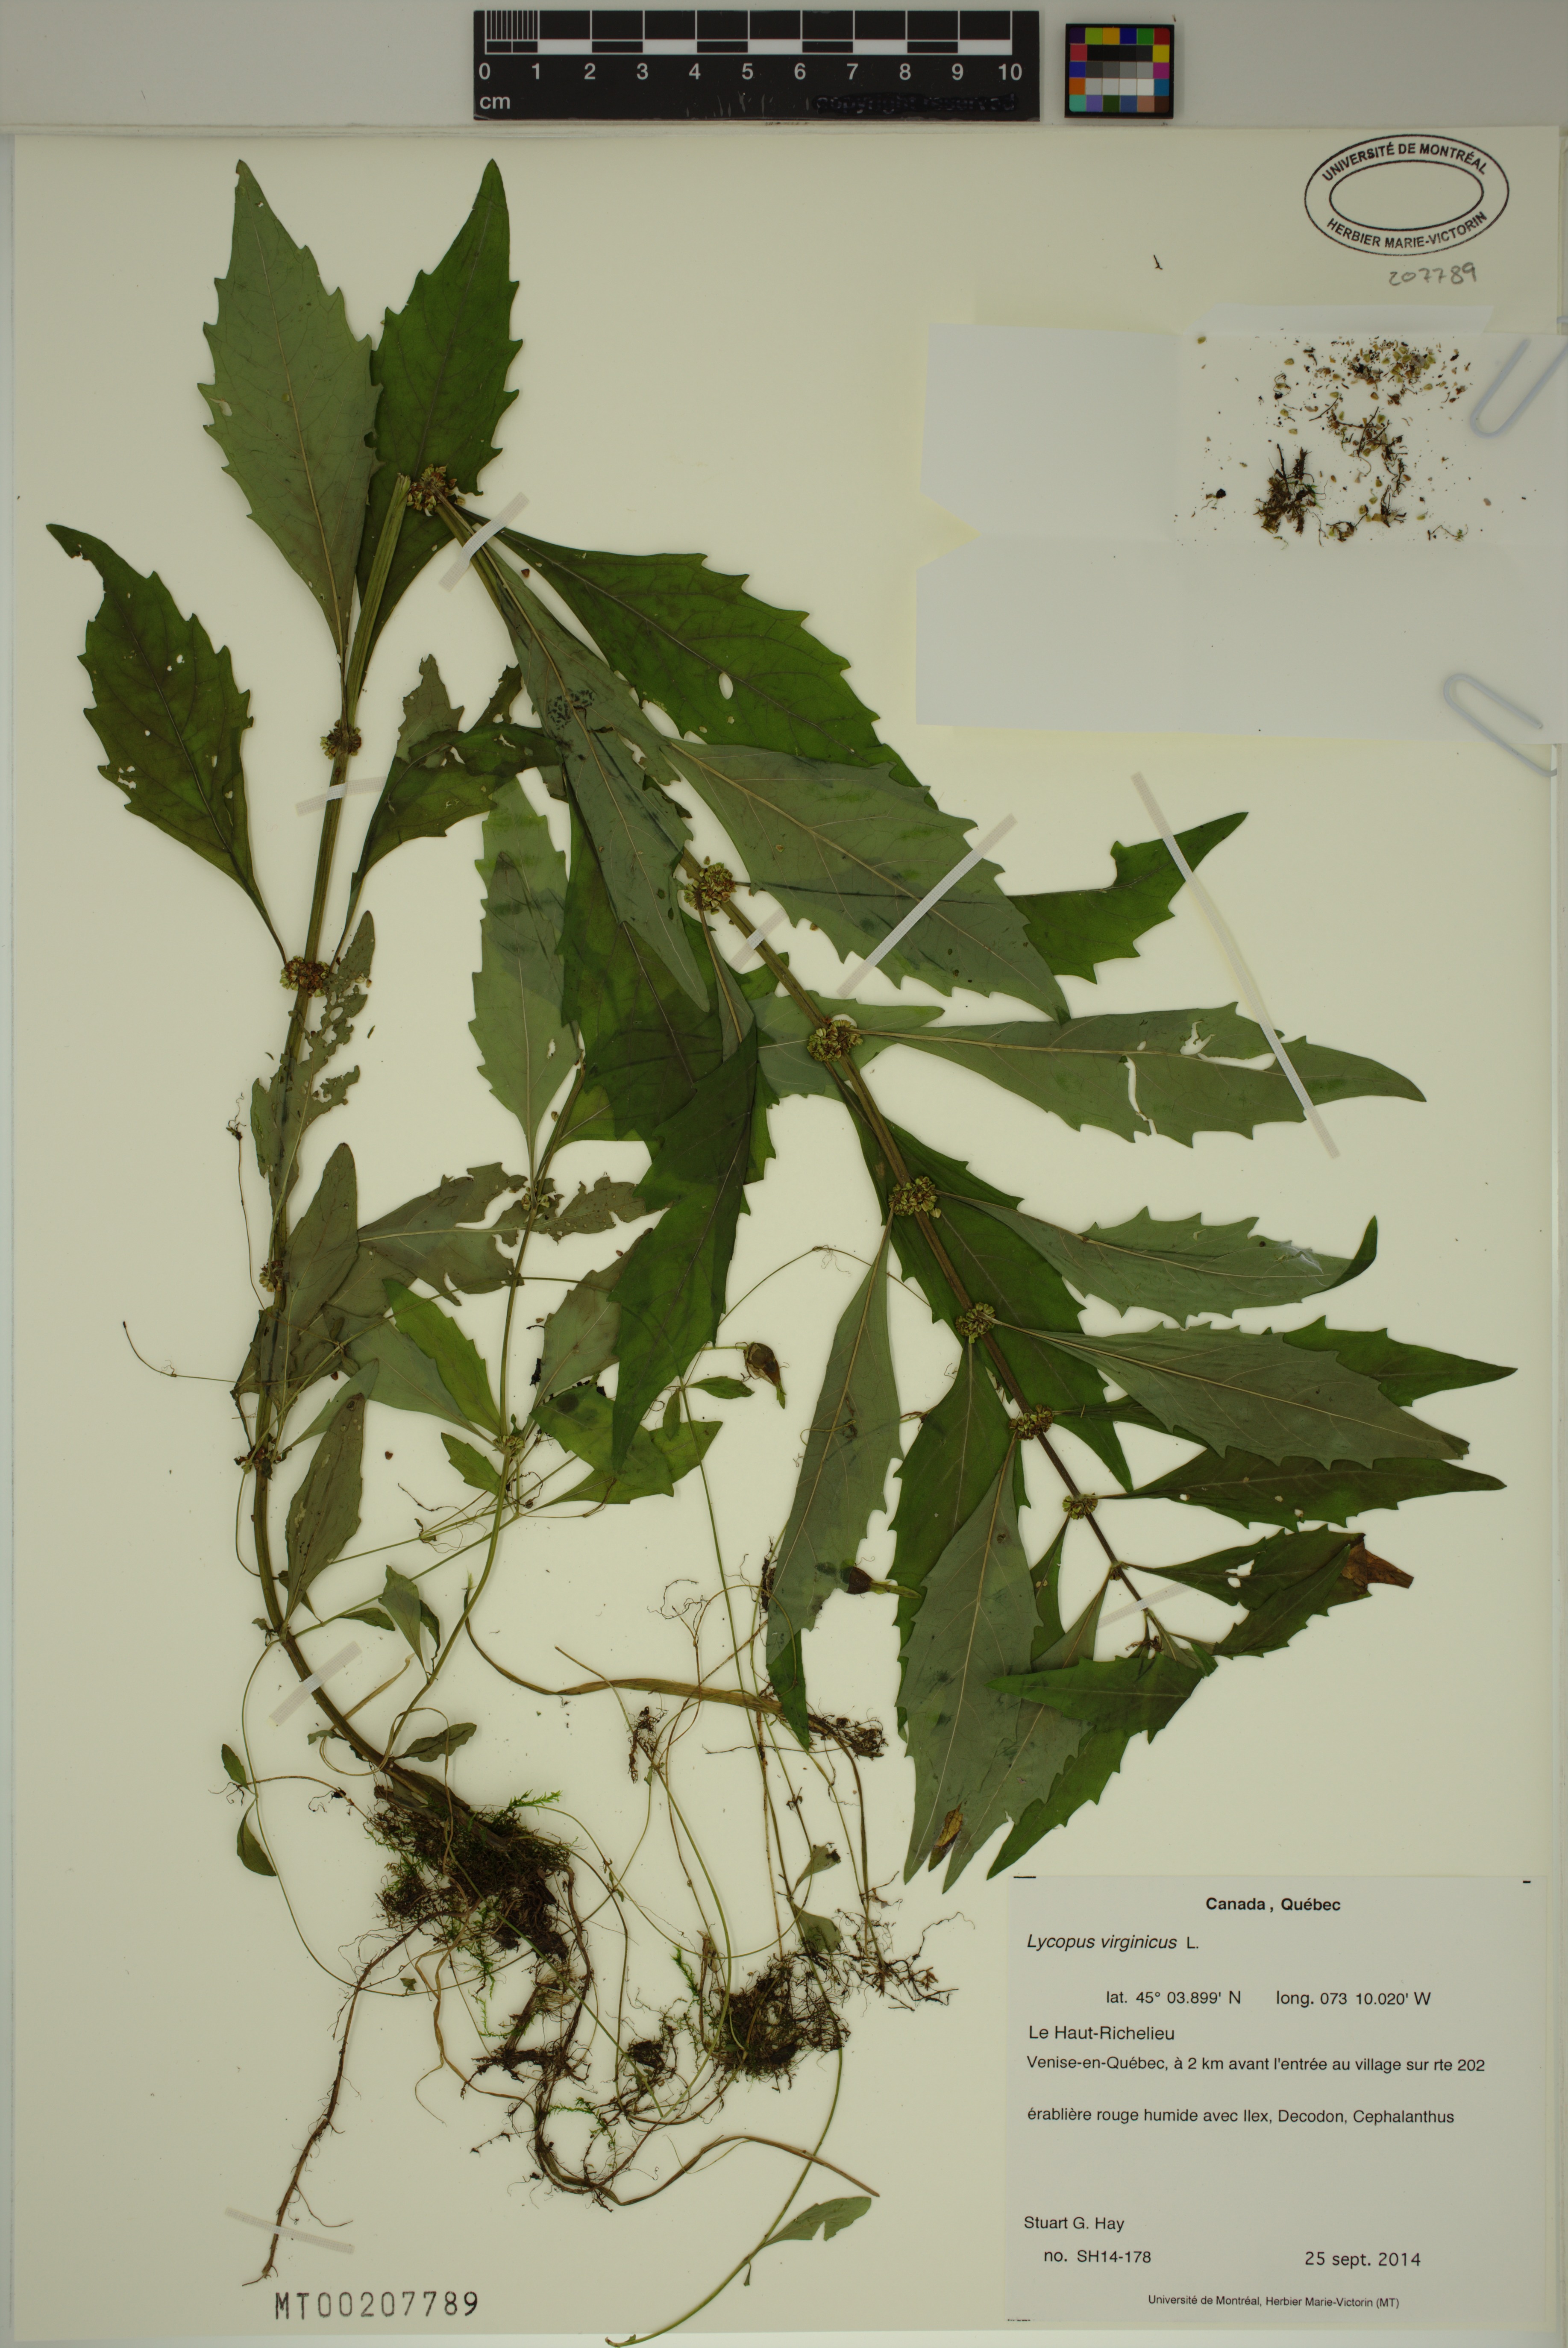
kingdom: Plantae
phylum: Tracheophyta
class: Magnoliopsida
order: Lamiales
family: Lamiaceae
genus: Lycopus
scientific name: Lycopus virginicus
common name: Bugleweed
